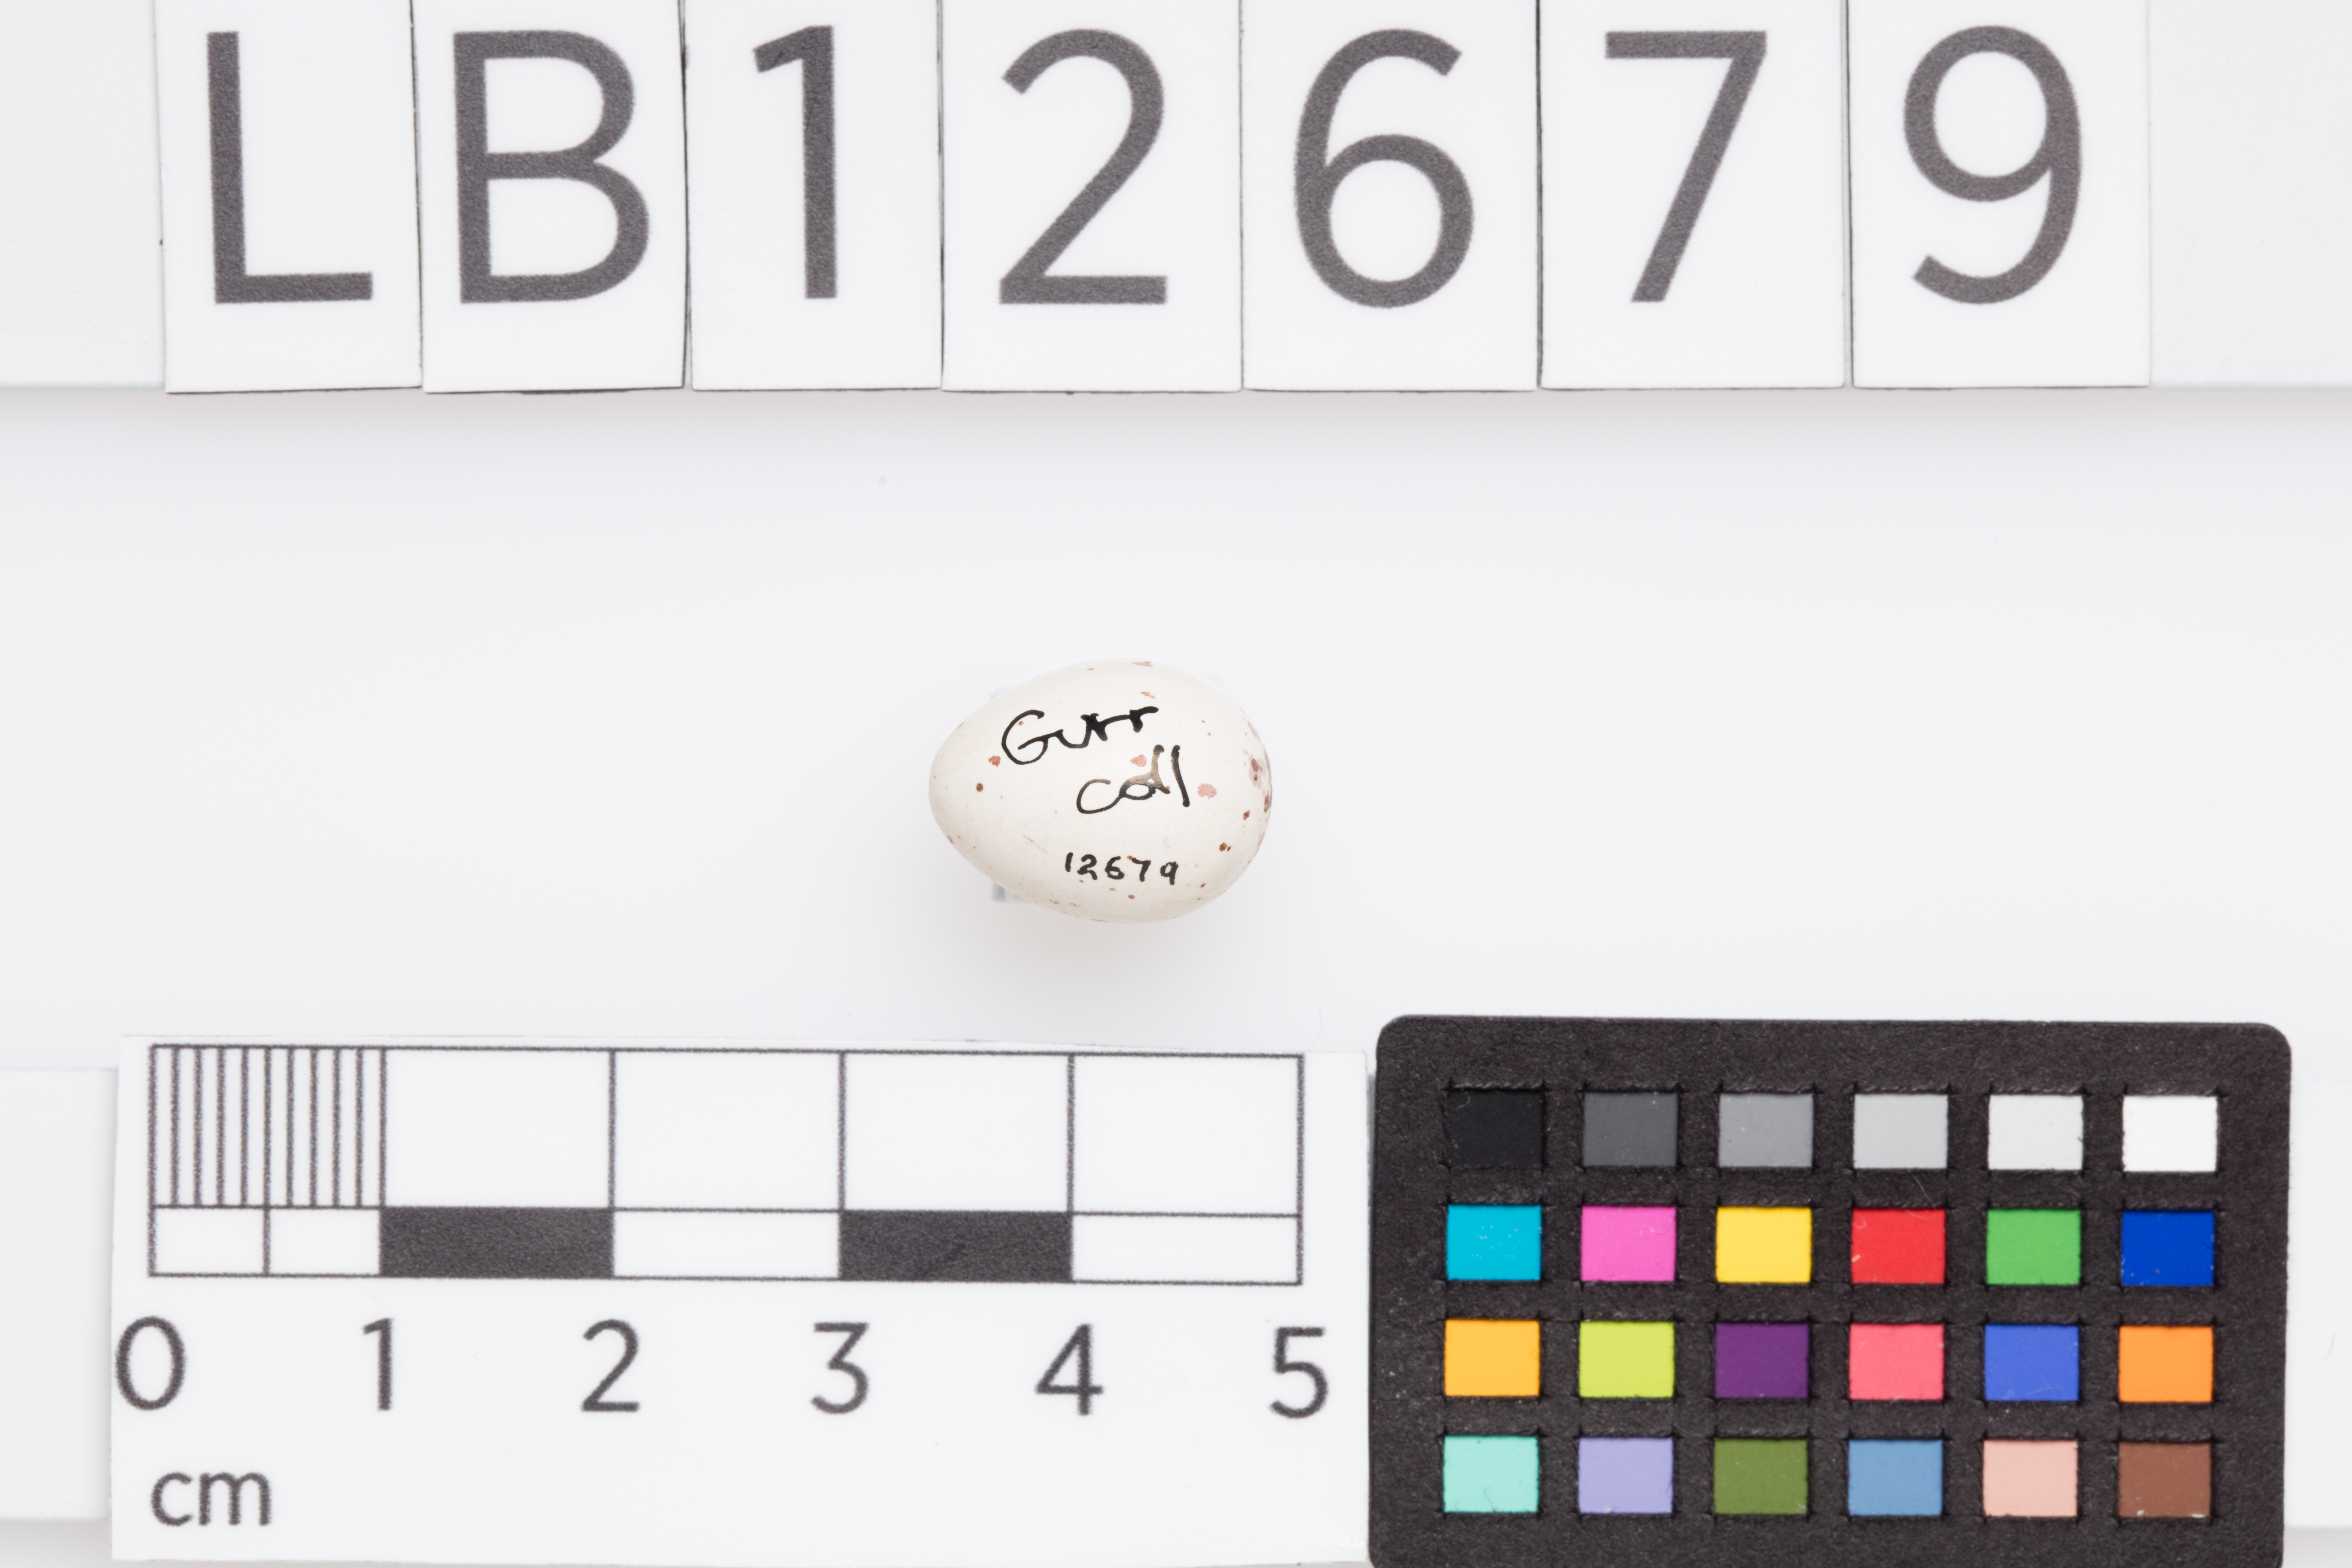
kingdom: Animalia
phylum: Chordata
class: Aves
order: Passeriformes
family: Cisticolidae
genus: Orthotomus
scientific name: Orthotomus sutorius
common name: Common tailorbird
